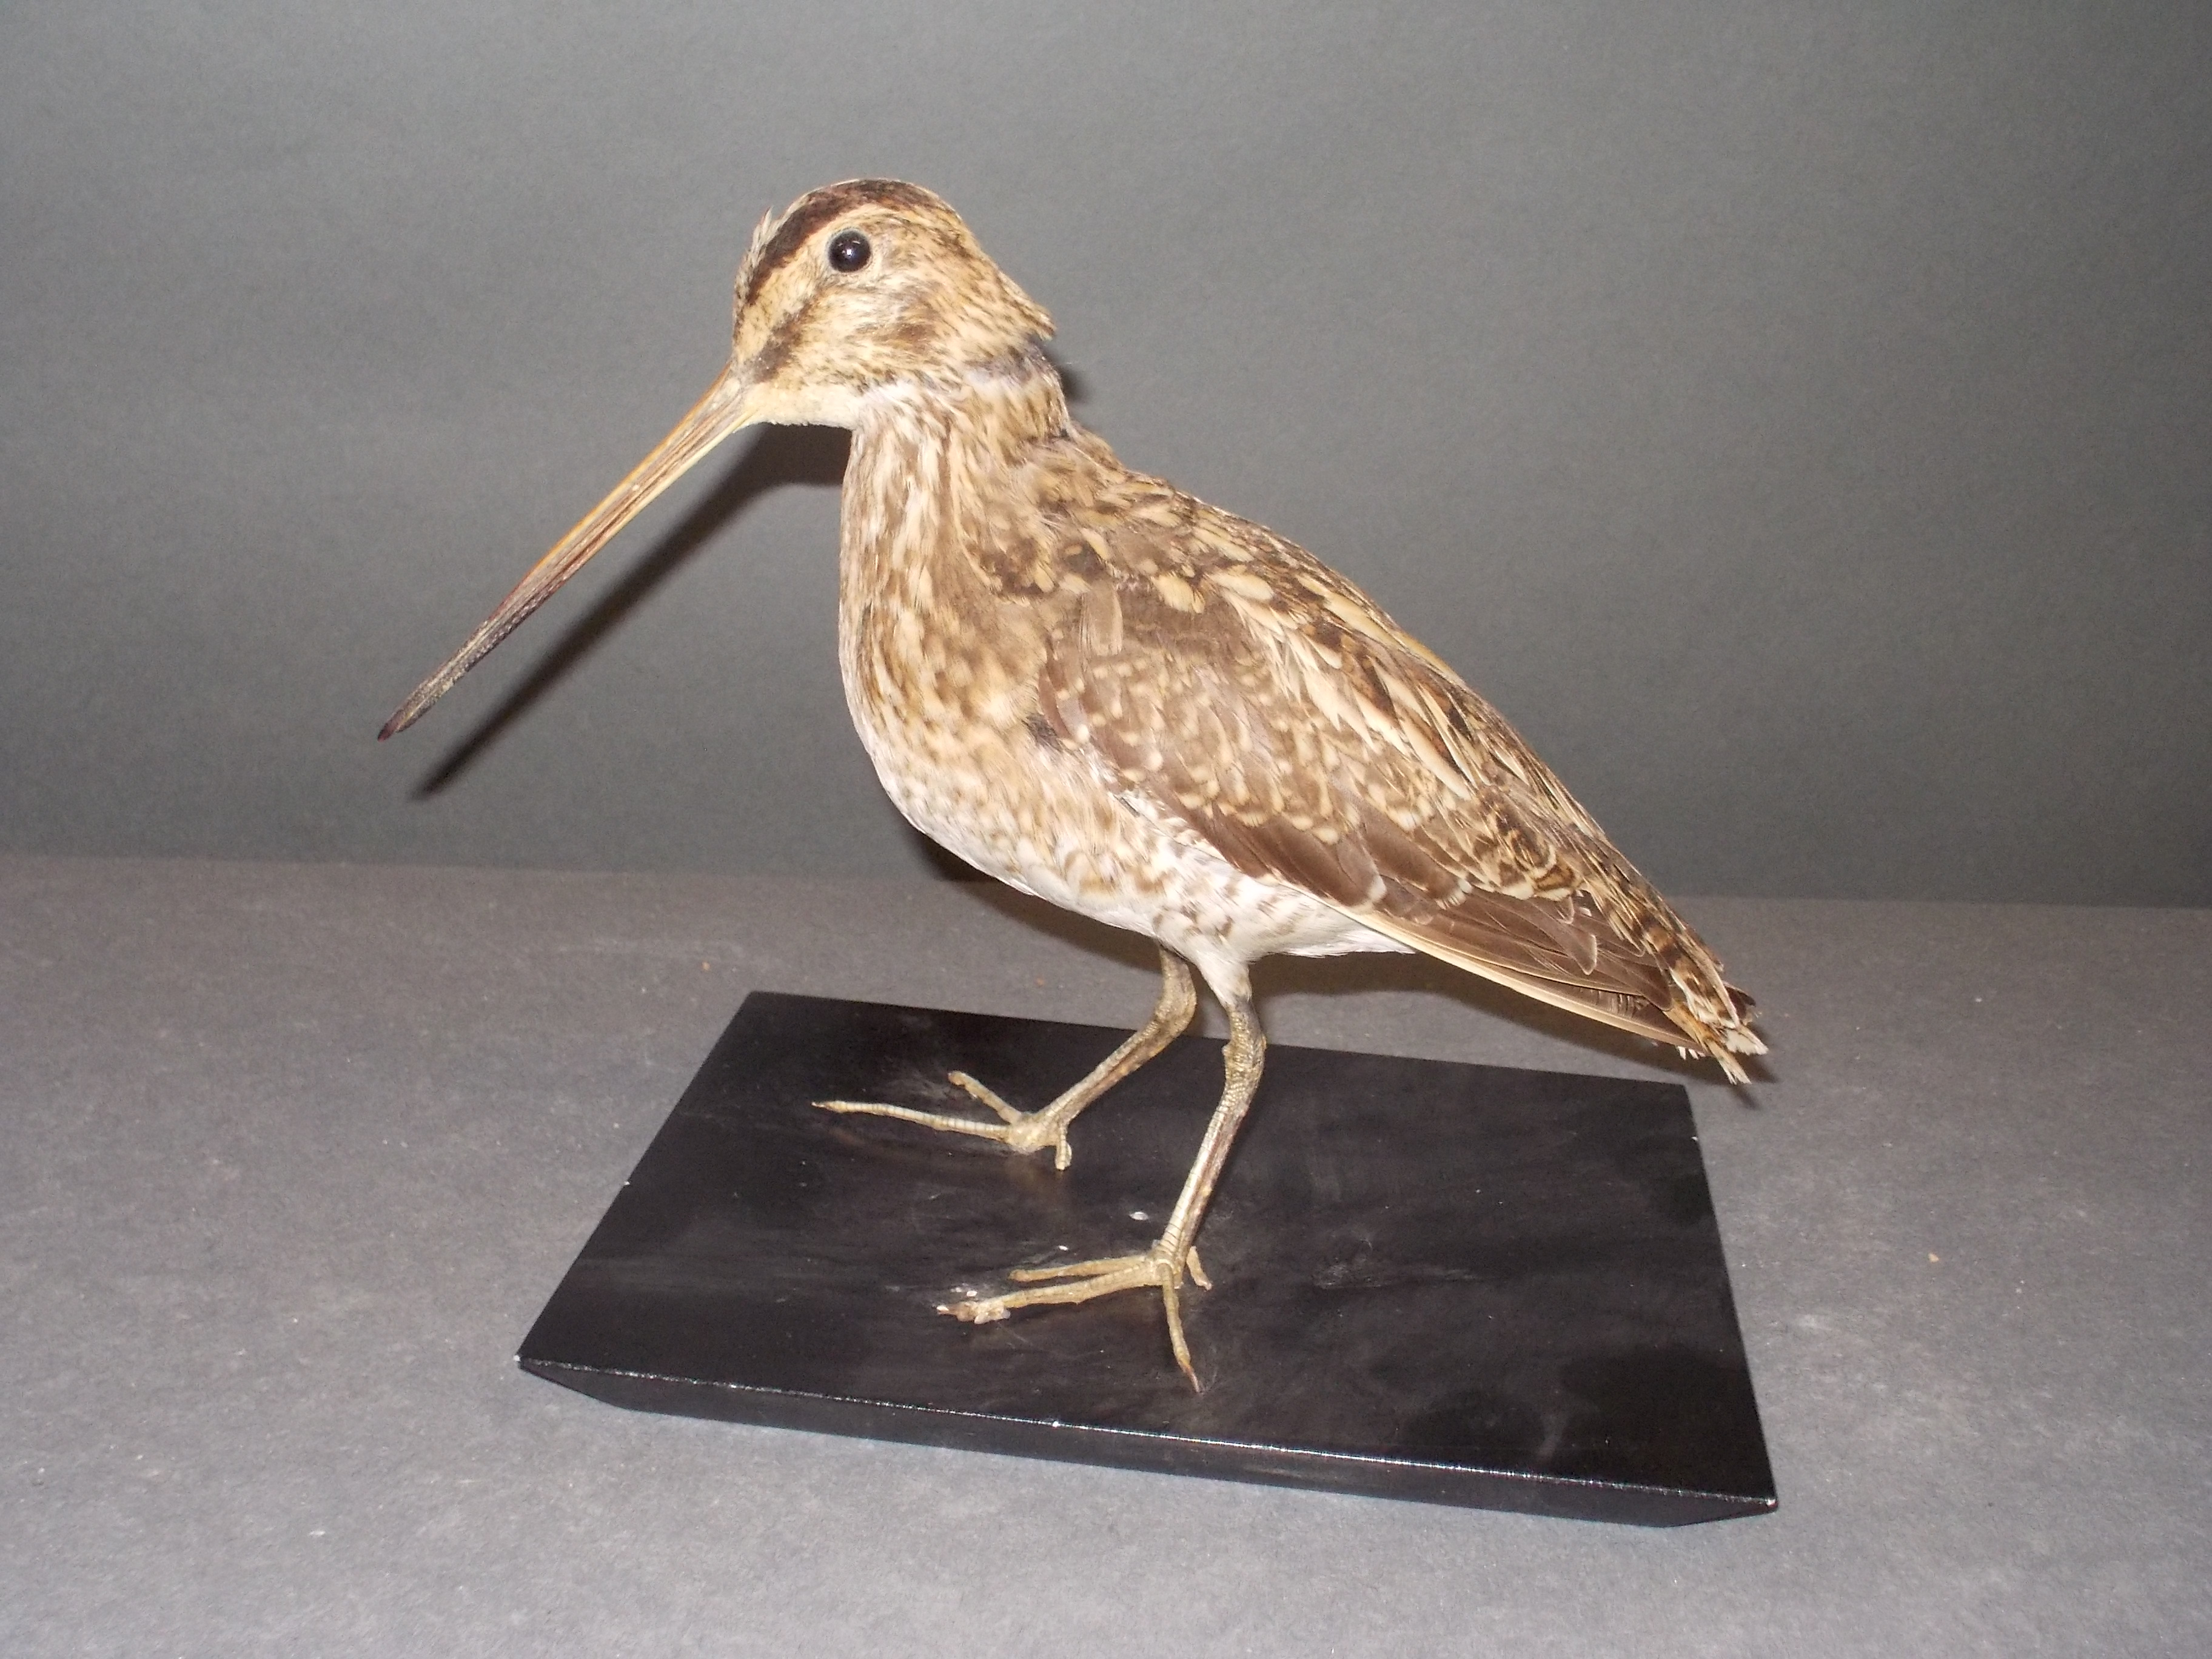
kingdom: Animalia
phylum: Chordata
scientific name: Chordata
